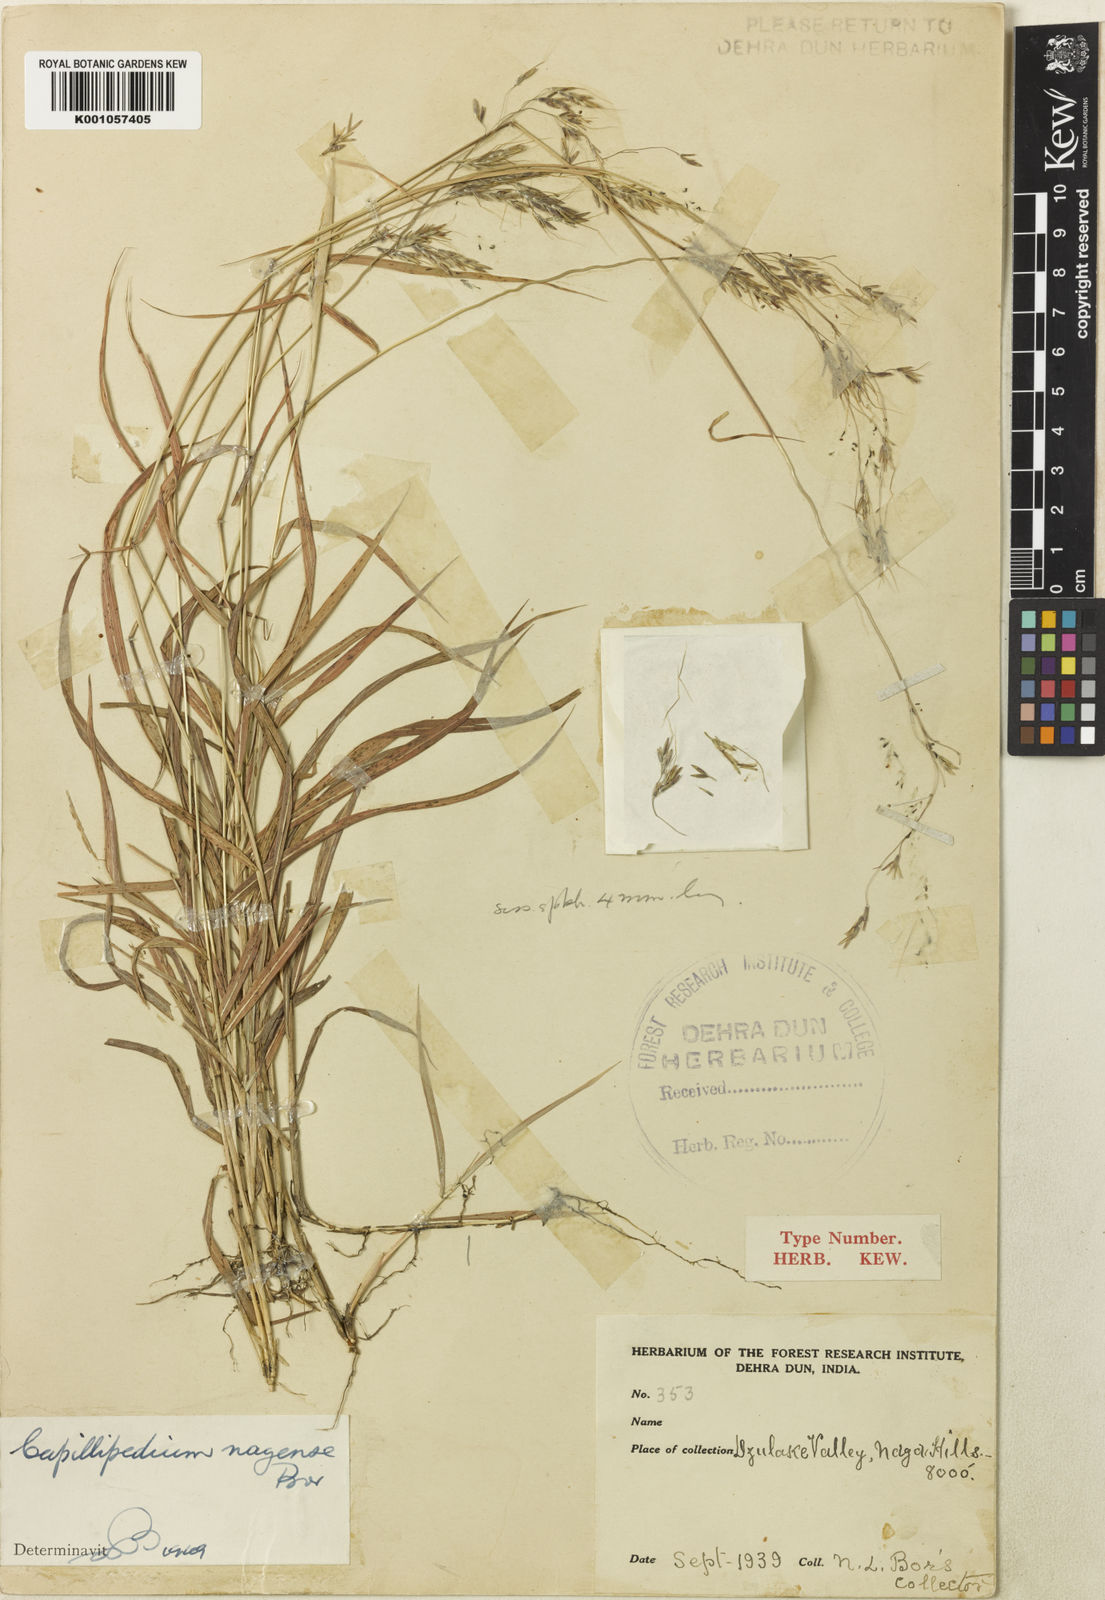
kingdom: Plantae
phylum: Tracheophyta
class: Liliopsida
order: Poales
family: Poaceae
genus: Capillipedium
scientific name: Capillipedium nagense
